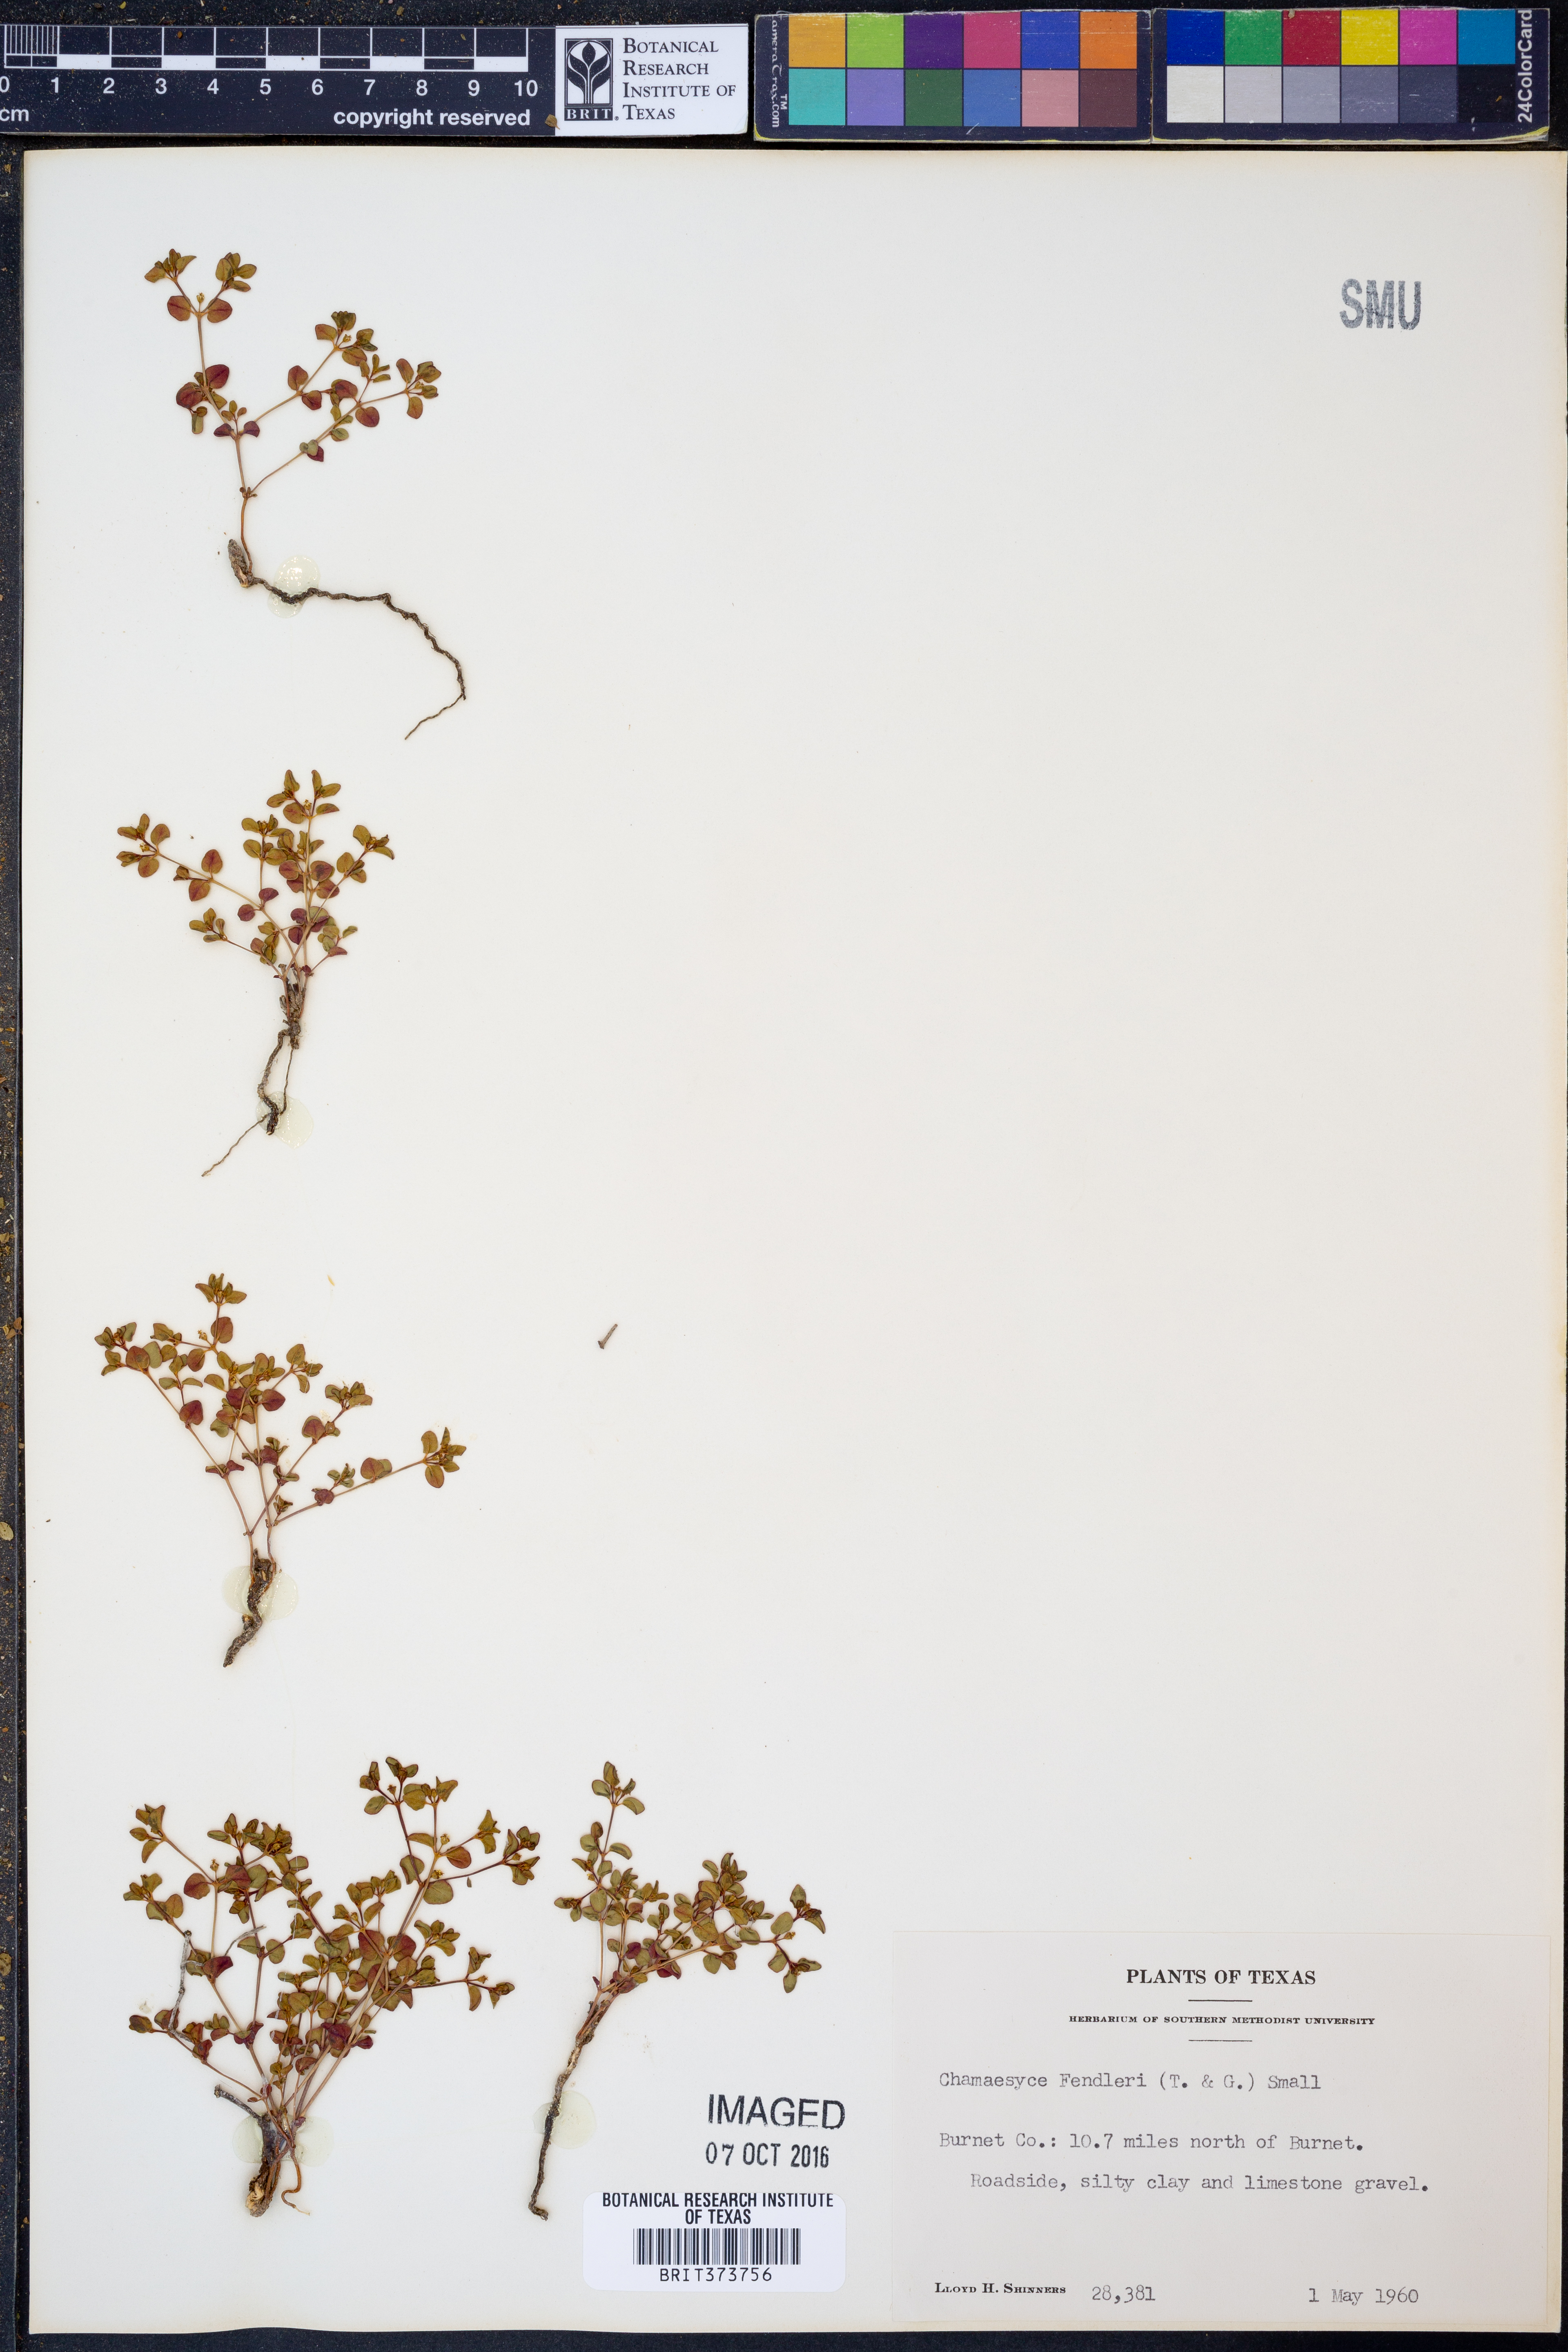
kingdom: Plantae
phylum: Tracheophyta
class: Magnoliopsida
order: Malpighiales
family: Euphorbiaceae
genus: Euphorbia
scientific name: Euphorbia fendleri
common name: Fendler's euphorbia
